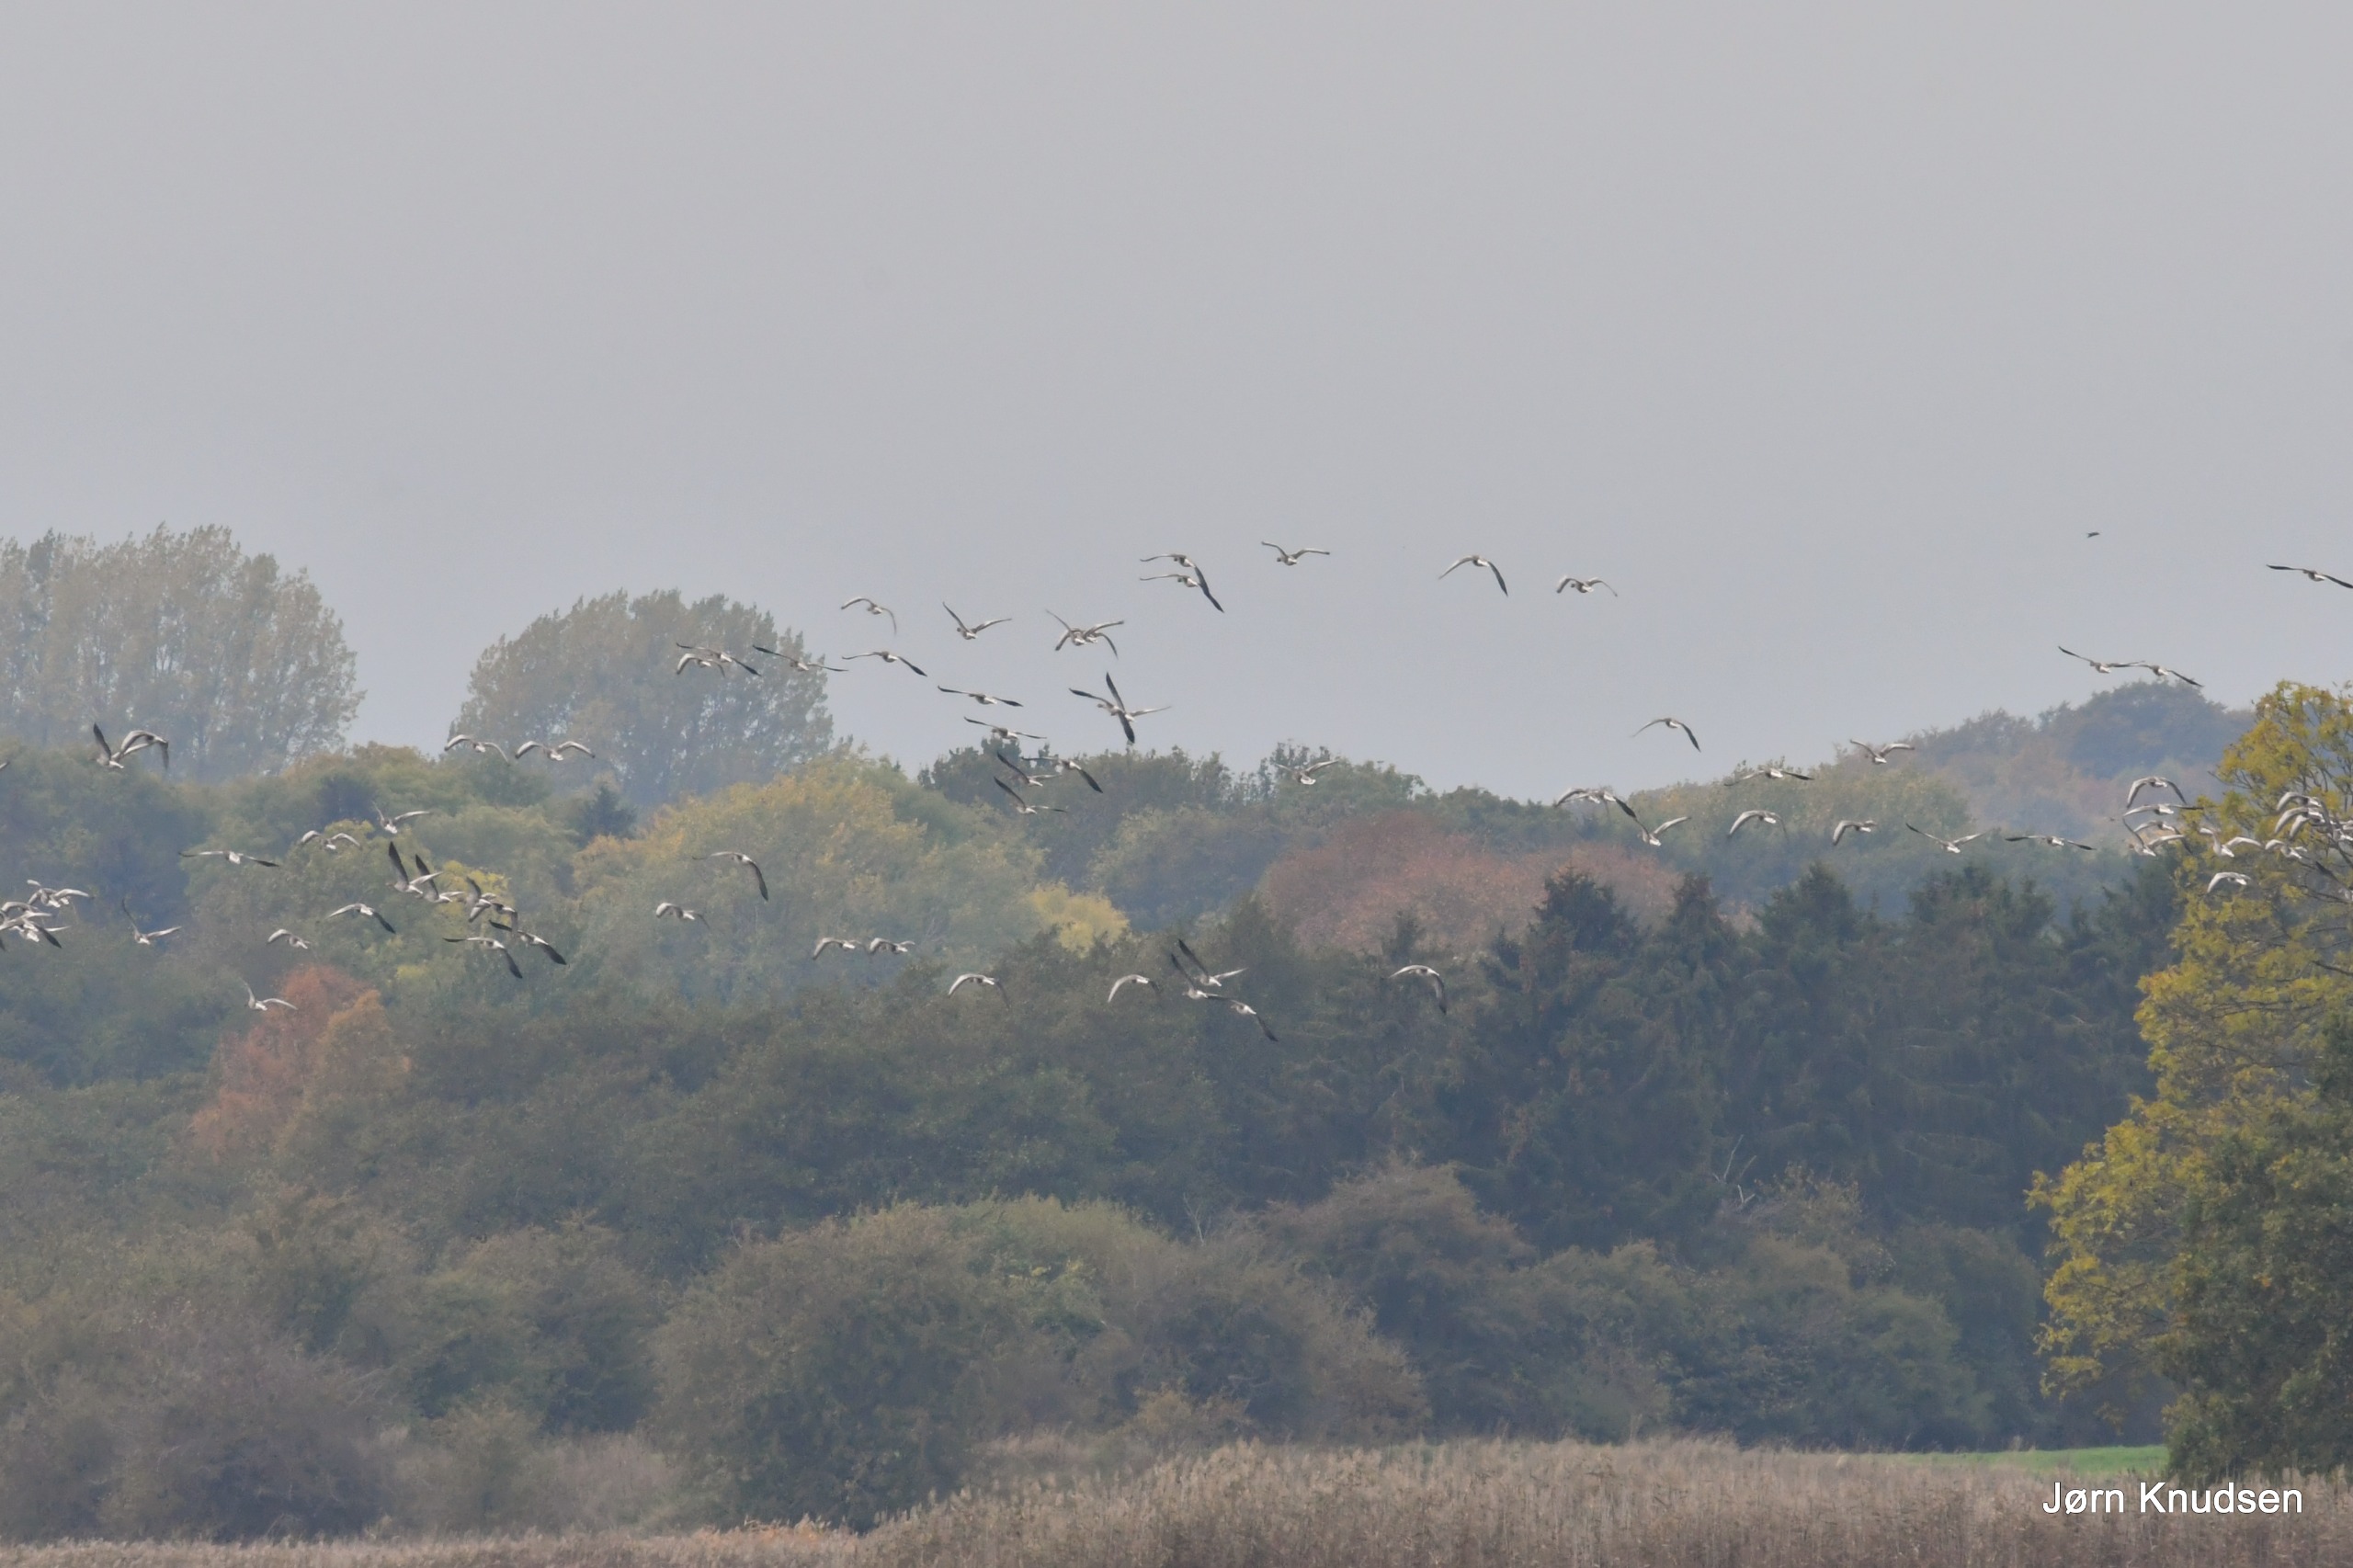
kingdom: Animalia
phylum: Chordata
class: Aves
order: Anseriformes
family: Anatidae
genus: Anser
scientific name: Anser anser
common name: Grågås
